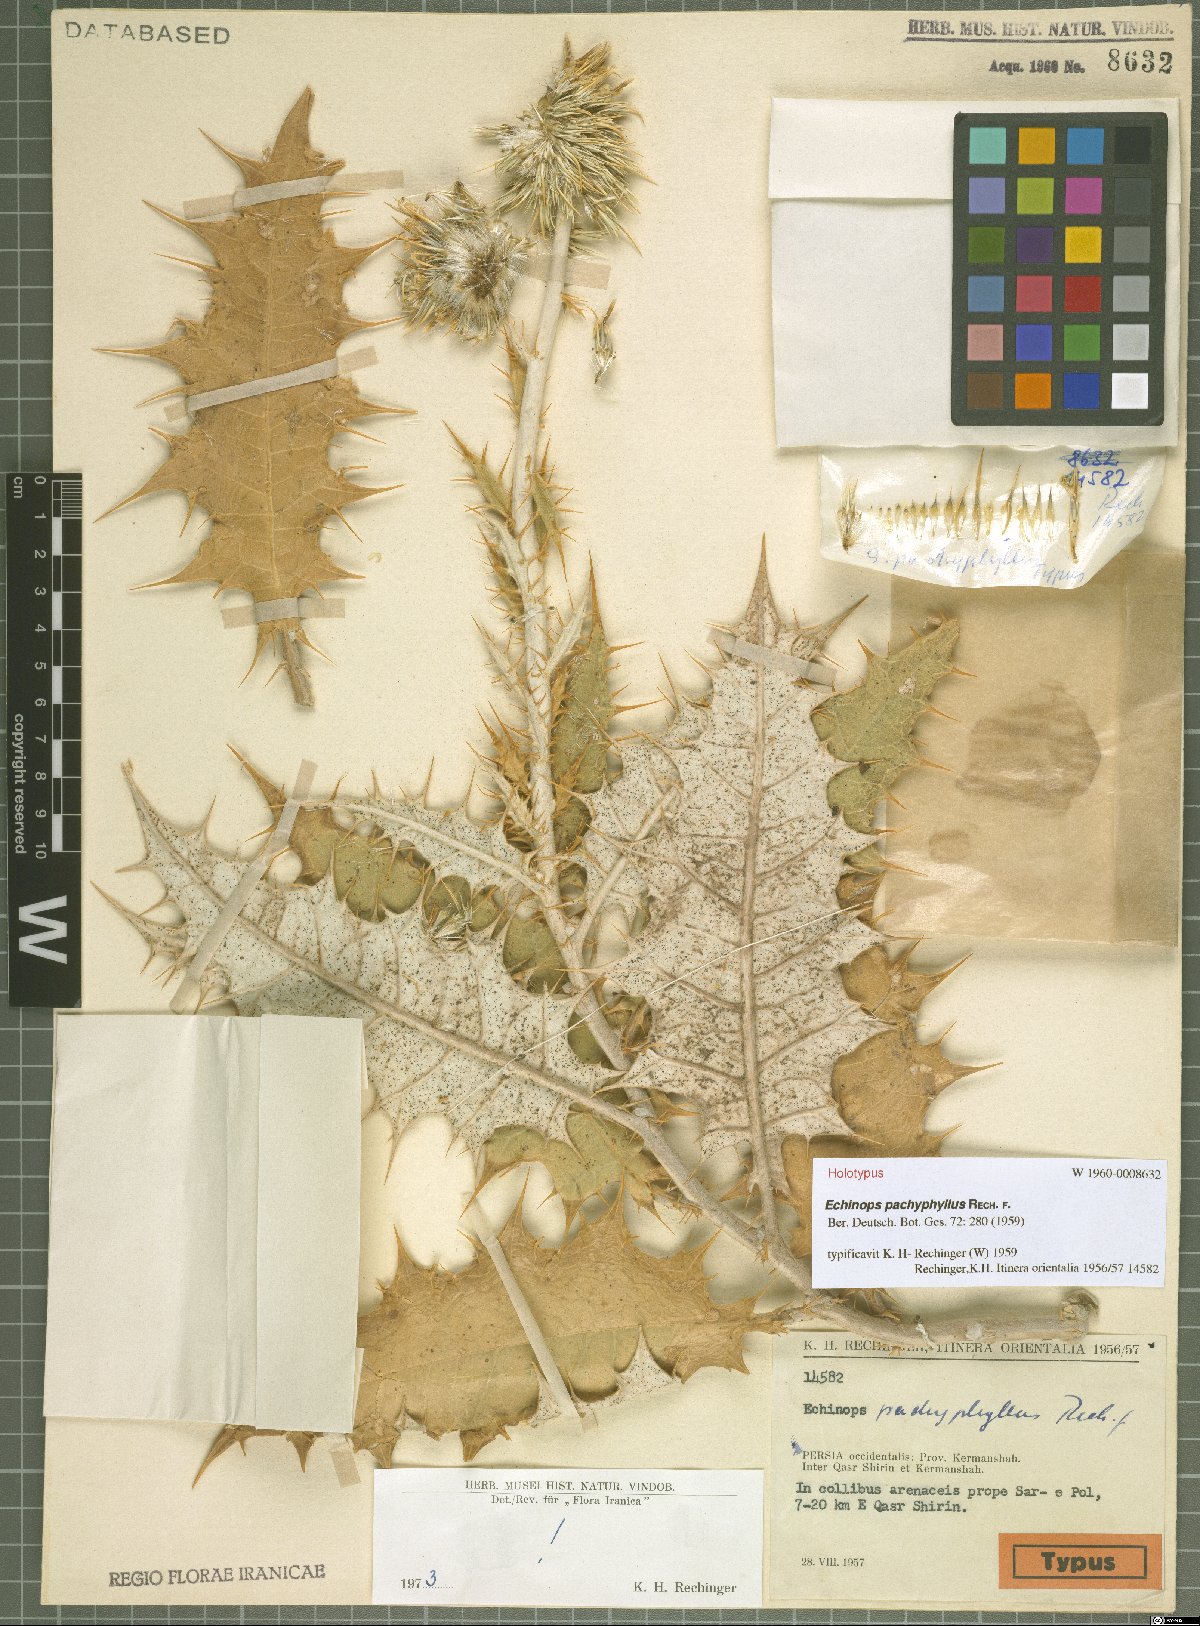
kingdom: Plantae
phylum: Tracheophyta
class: Magnoliopsida
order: Asterales
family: Asteraceae
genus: Echinops
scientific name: Echinops pachyphyllus
